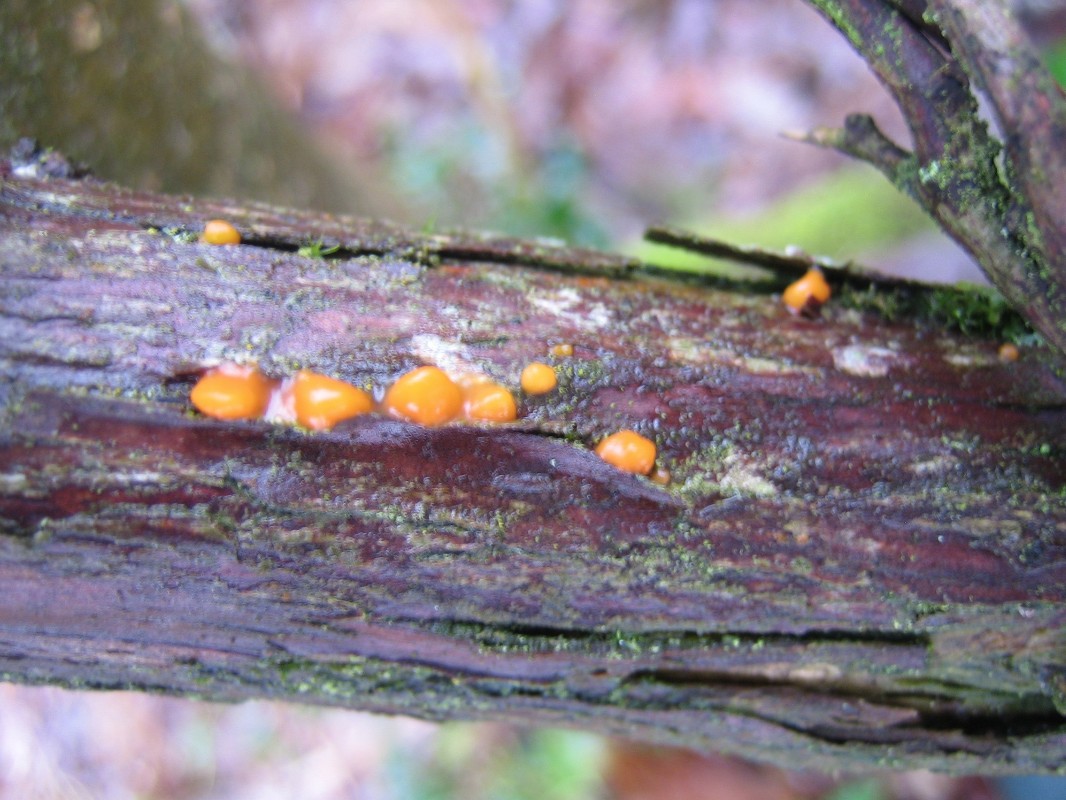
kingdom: Fungi
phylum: Basidiomycota
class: Dacrymycetes
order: Dacrymycetales
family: Dacrymycetaceae
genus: Dacrymyces
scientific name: Dacrymyces stillatus
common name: almindelig tåresvamp
